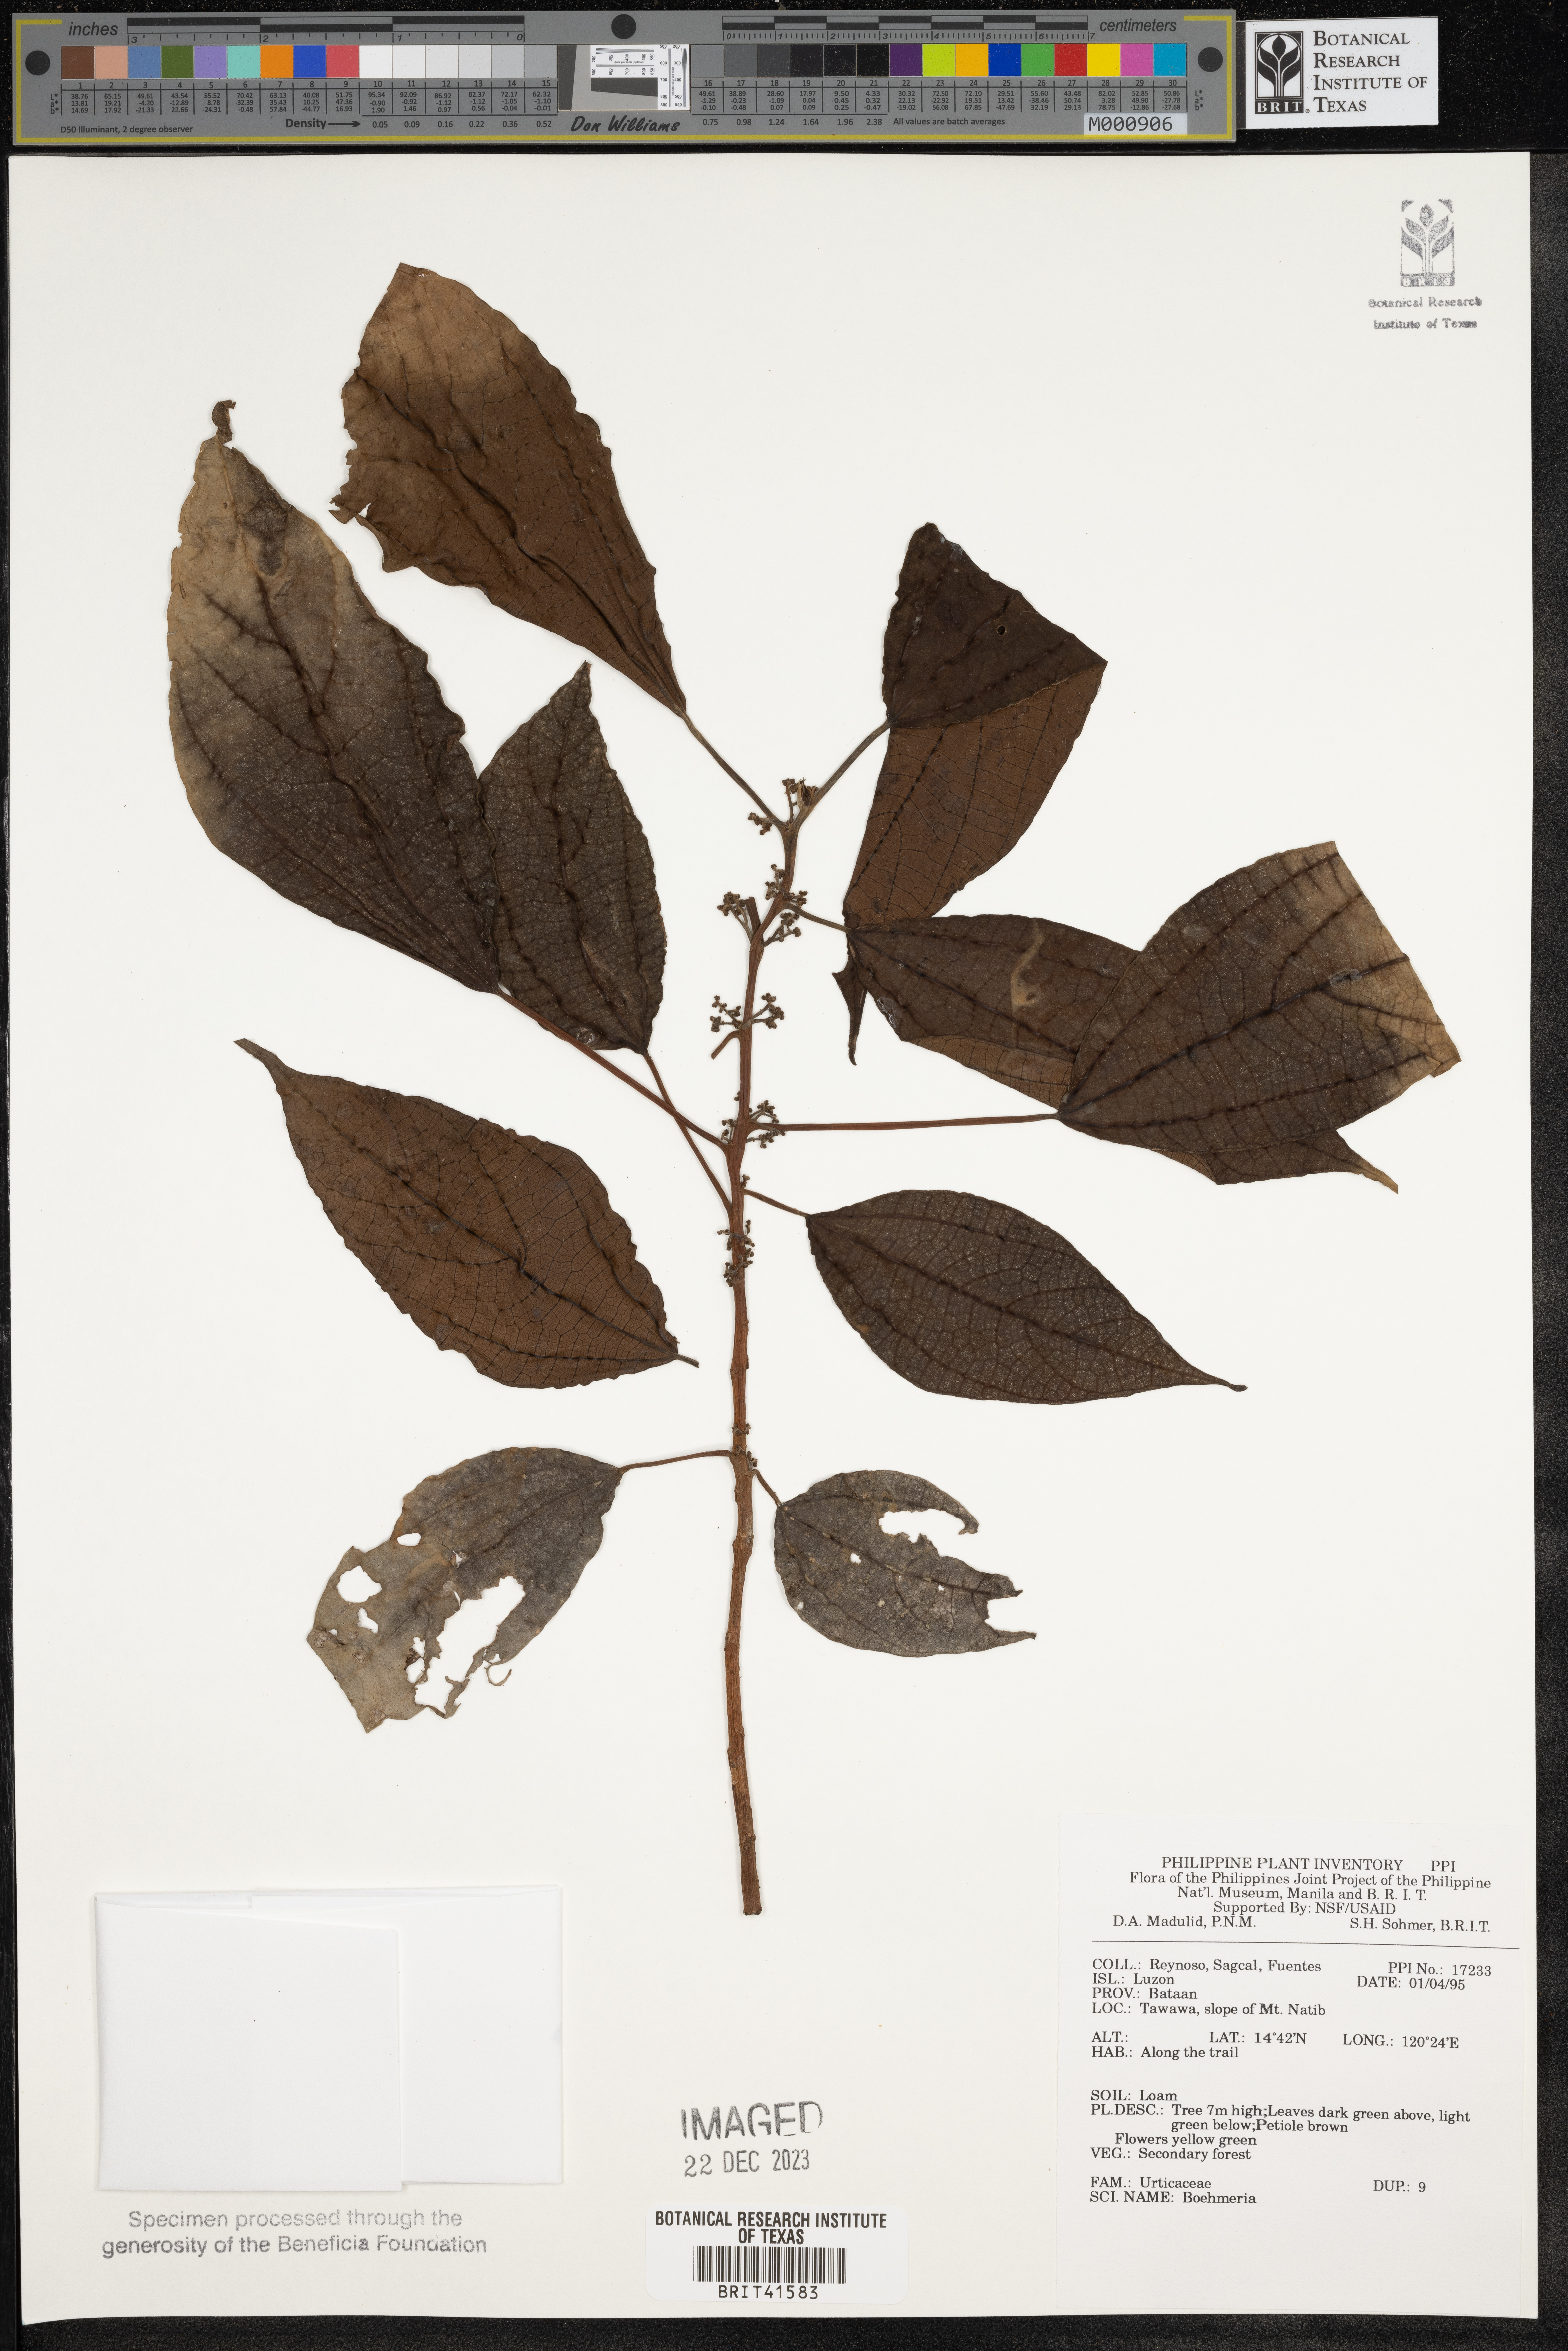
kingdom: Plantae
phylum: Tracheophyta
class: Magnoliopsida
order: Rosales
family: Urticaceae
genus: Boehmeria
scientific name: Boehmeria
